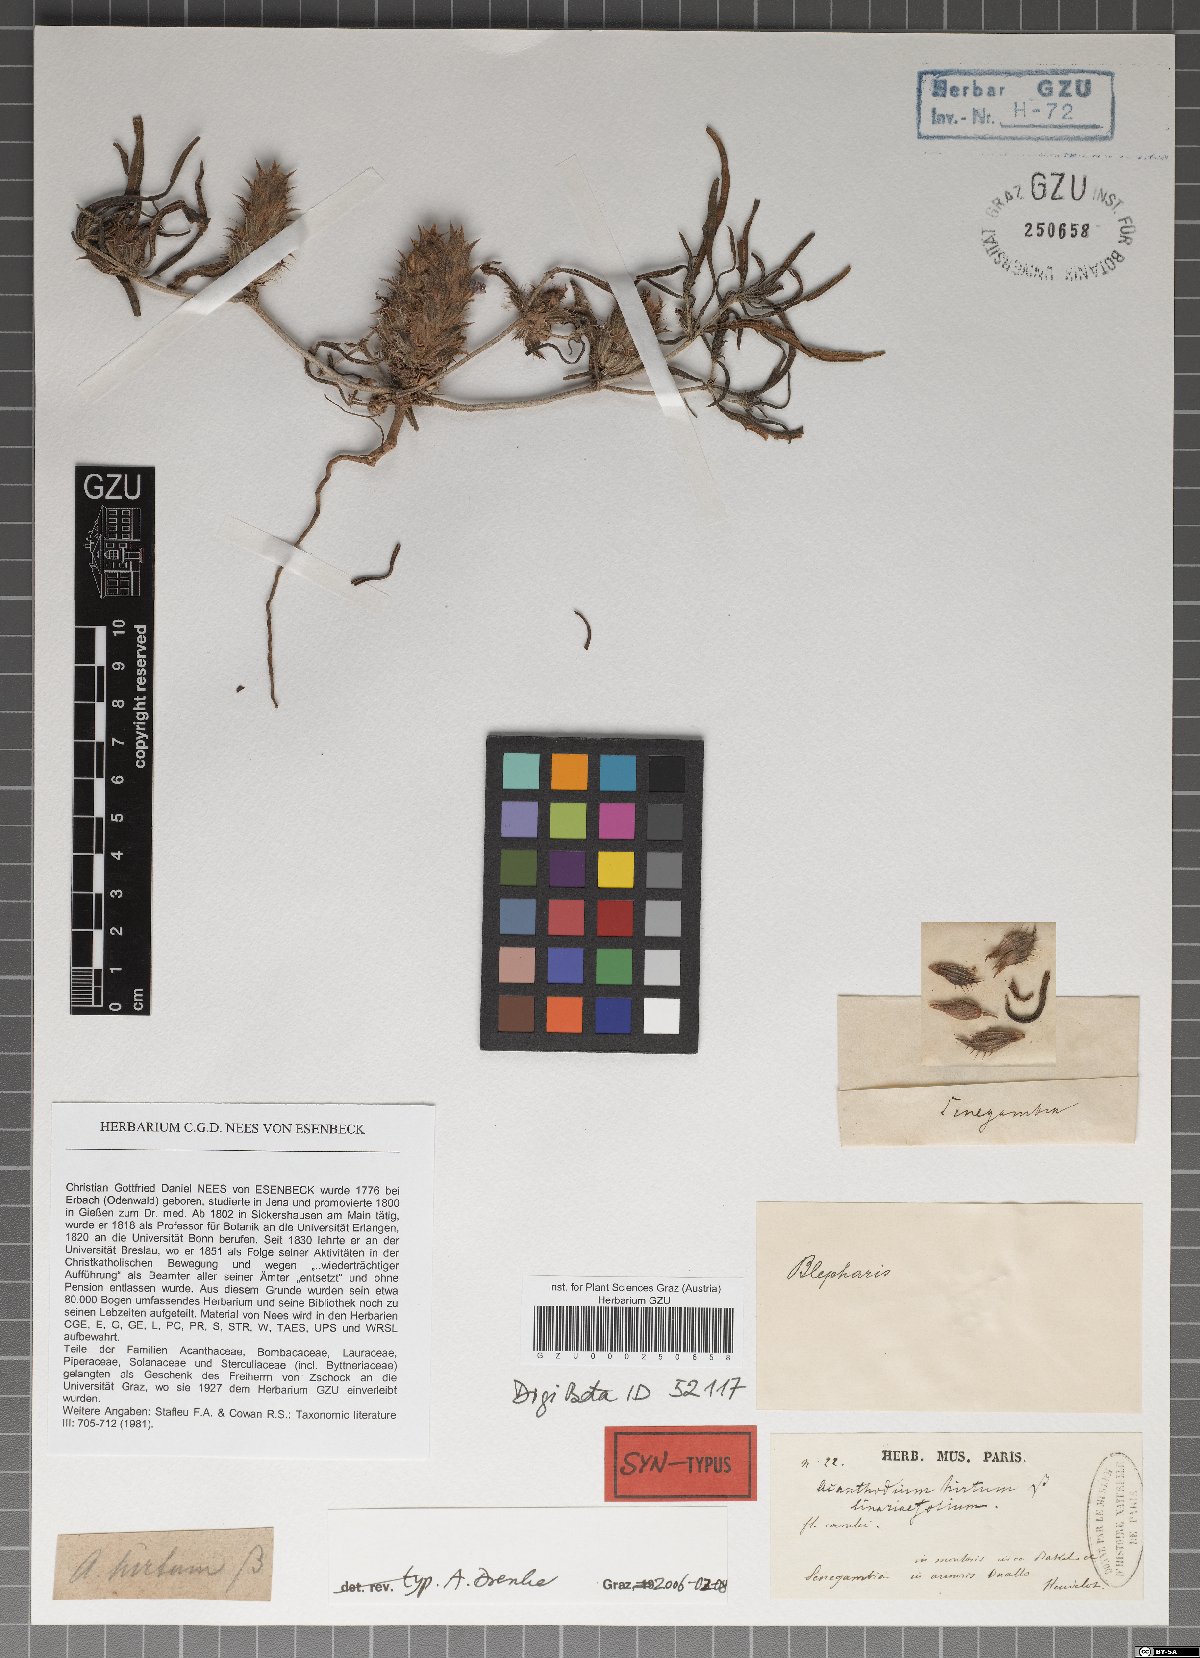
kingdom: Plantae
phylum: Tracheophyta
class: Magnoliopsida
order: Lamiales
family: Acanthaceae
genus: Blepharis
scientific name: Blepharis linariifolia
